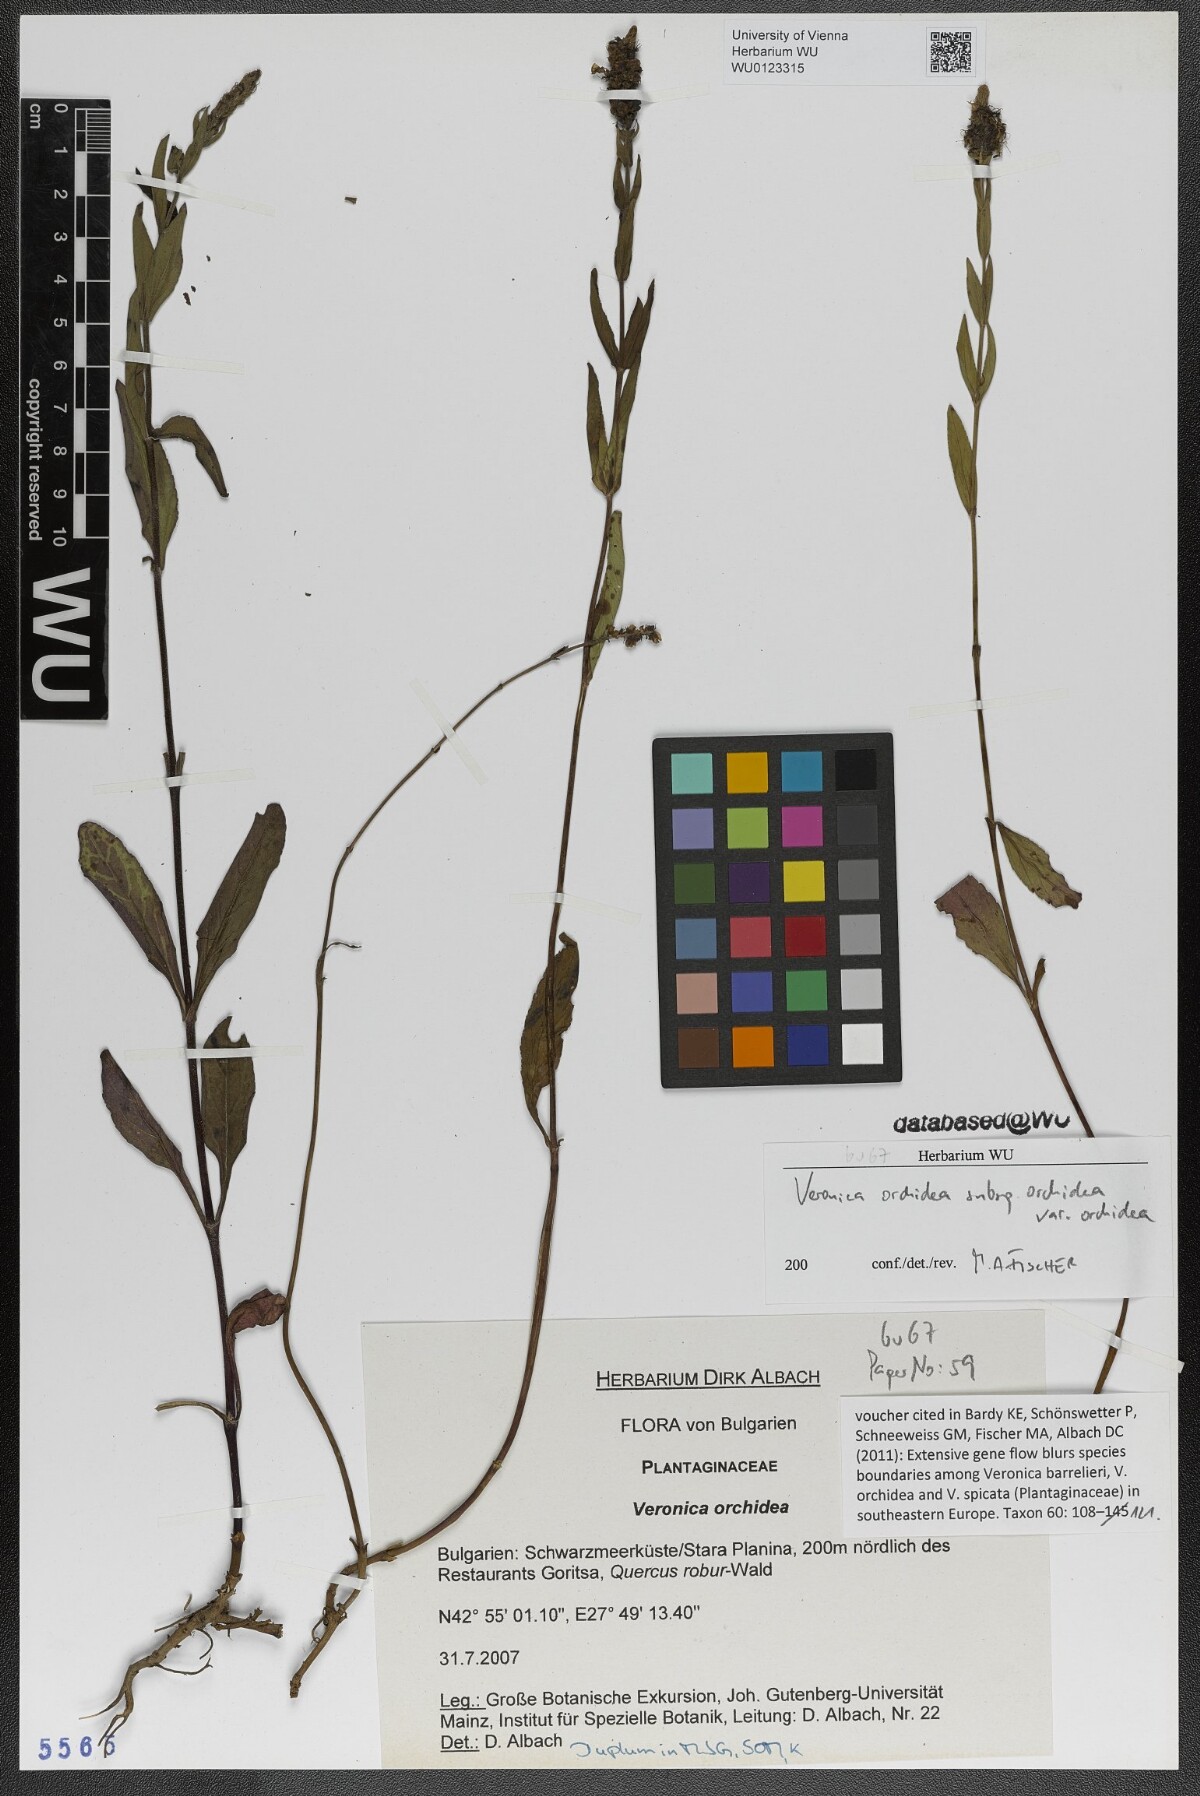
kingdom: Plantae
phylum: Tracheophyta
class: Magnoliopsida
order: Lamiales
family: Plantaginaceae
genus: Veronica
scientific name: Veronica orchidea
